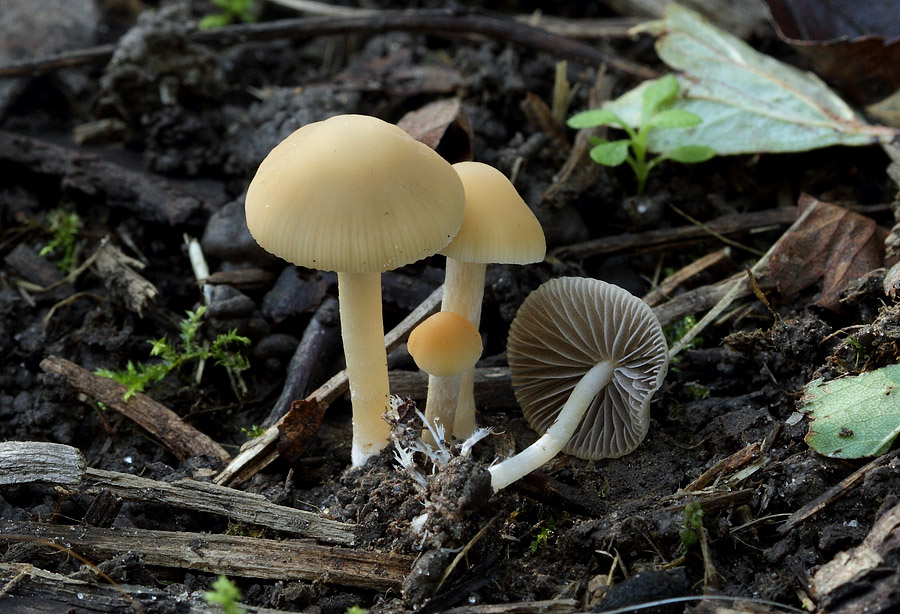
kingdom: Fungi
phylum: Basidiomycota
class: Agaricomycetes
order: Agaricales
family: Psathyrellaceae
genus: Psathyrella
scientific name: Psathyrella pseudogracilis
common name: slank mørkhat
